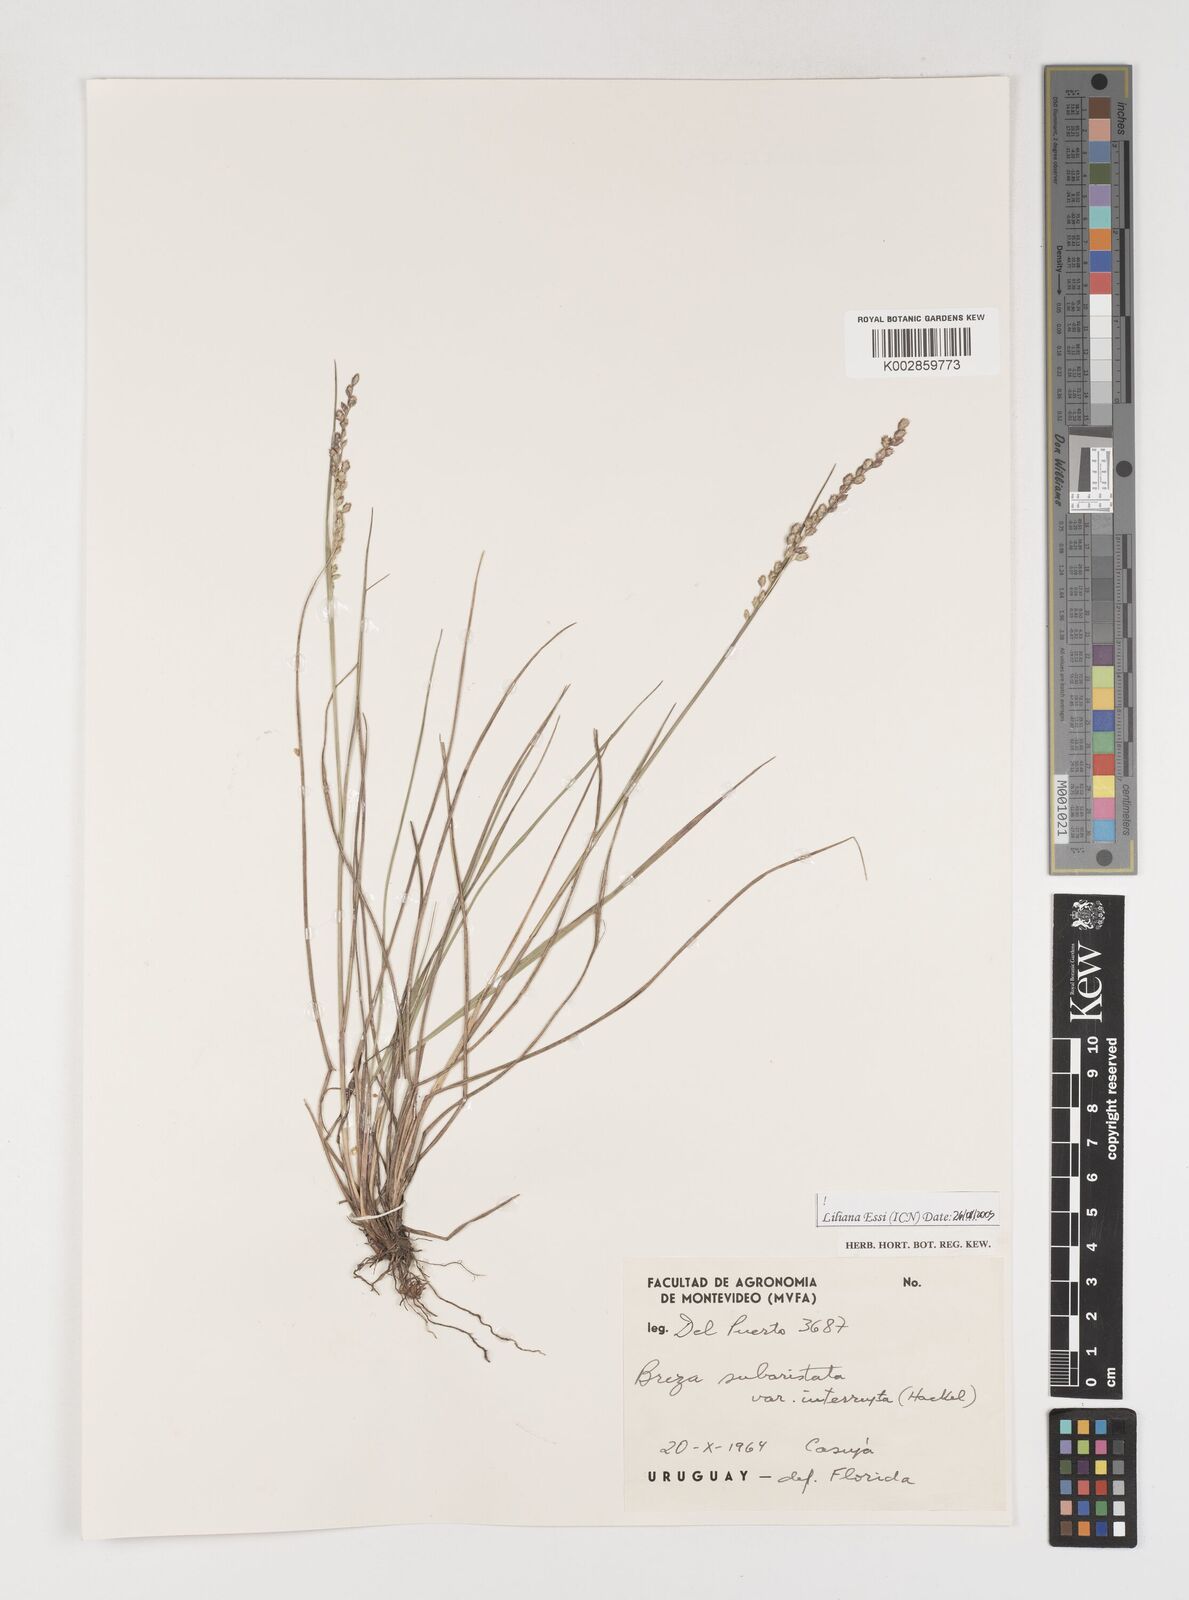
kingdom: Plantae
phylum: Tracheophyta
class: Liliopsida
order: Poales
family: Poaceae
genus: Chascolytrum
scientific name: Chascolytrum subaristatum
